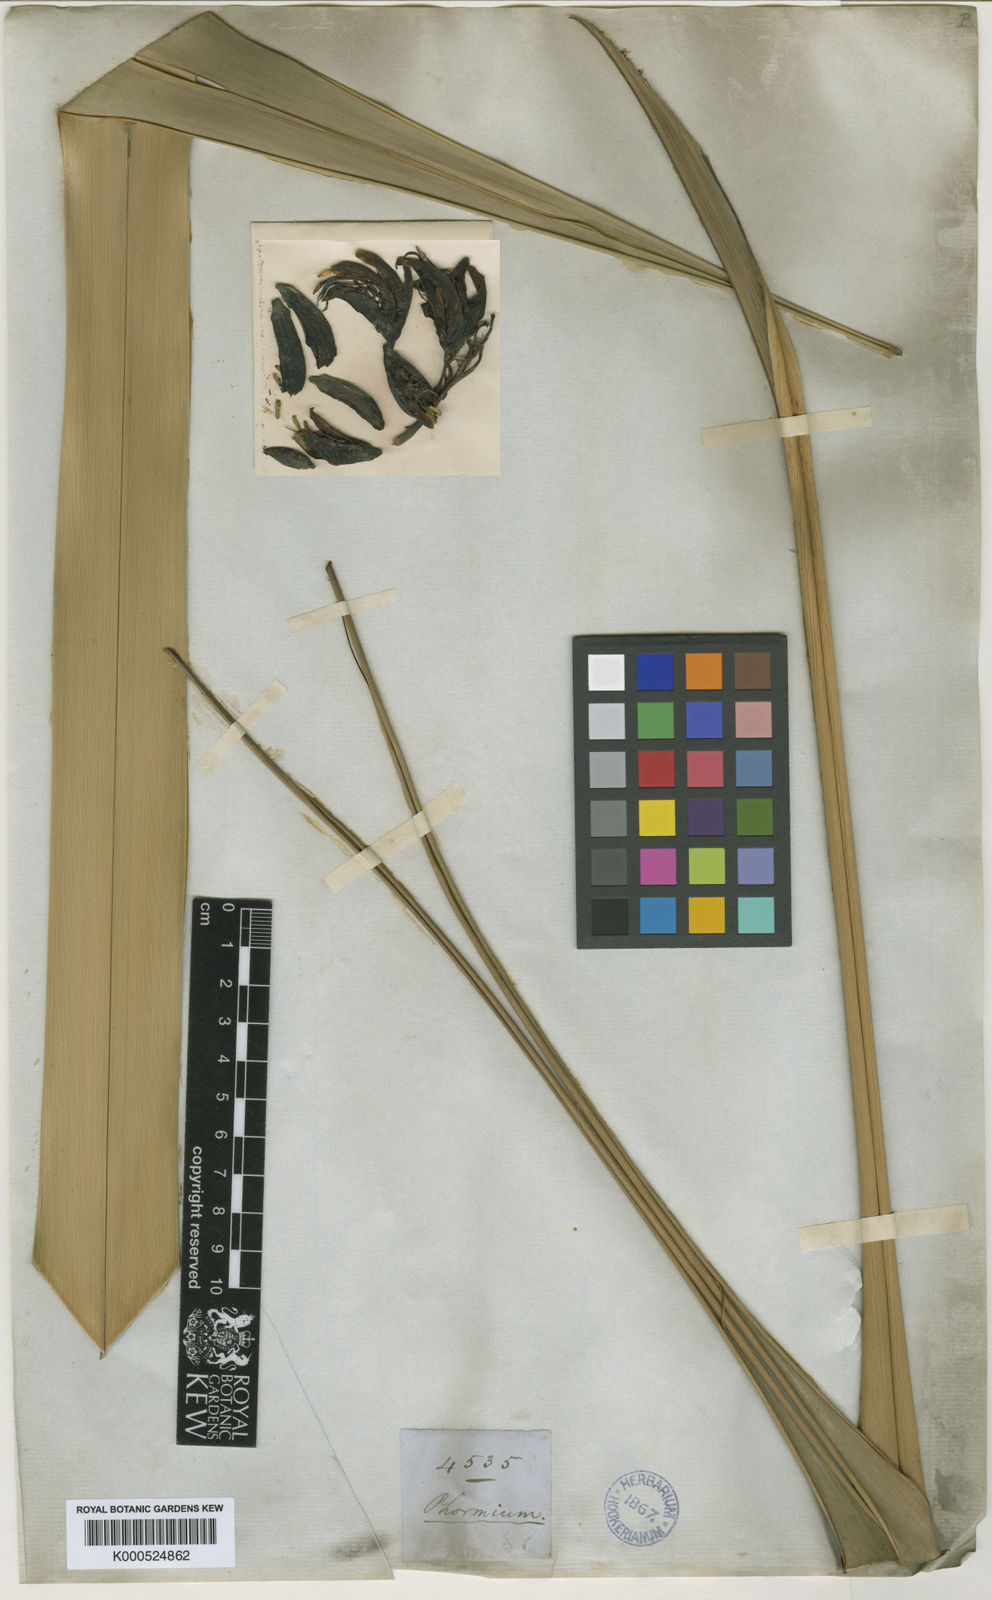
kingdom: Plantae
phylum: Tracheophyta
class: Liliopsida
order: Asparagales
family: Asphodelaceae
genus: Phormium
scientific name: Phormium tenax
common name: New zealand flax
